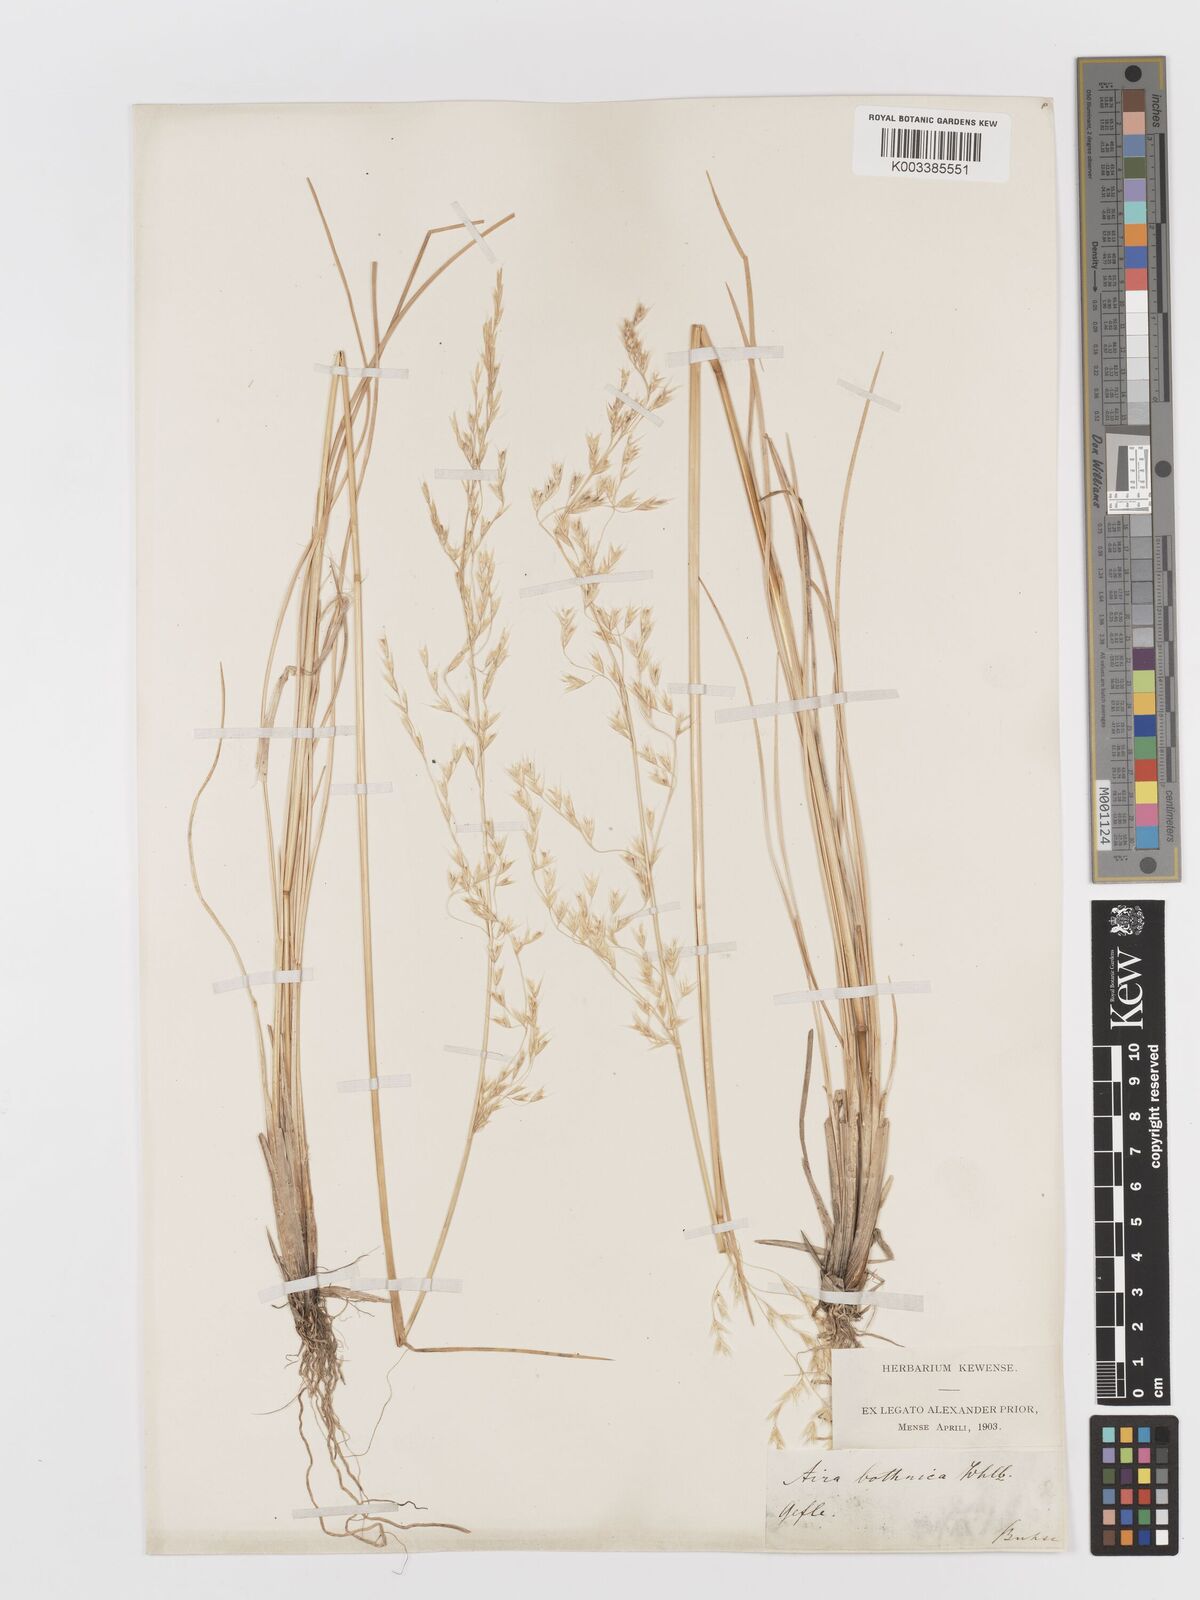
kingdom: Plantae
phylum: Tracheophyta
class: Liliopsida
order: Poales
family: Poaceae
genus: Deschampsia
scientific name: Deschampsia cespitosa
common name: Tufted hair-grass
